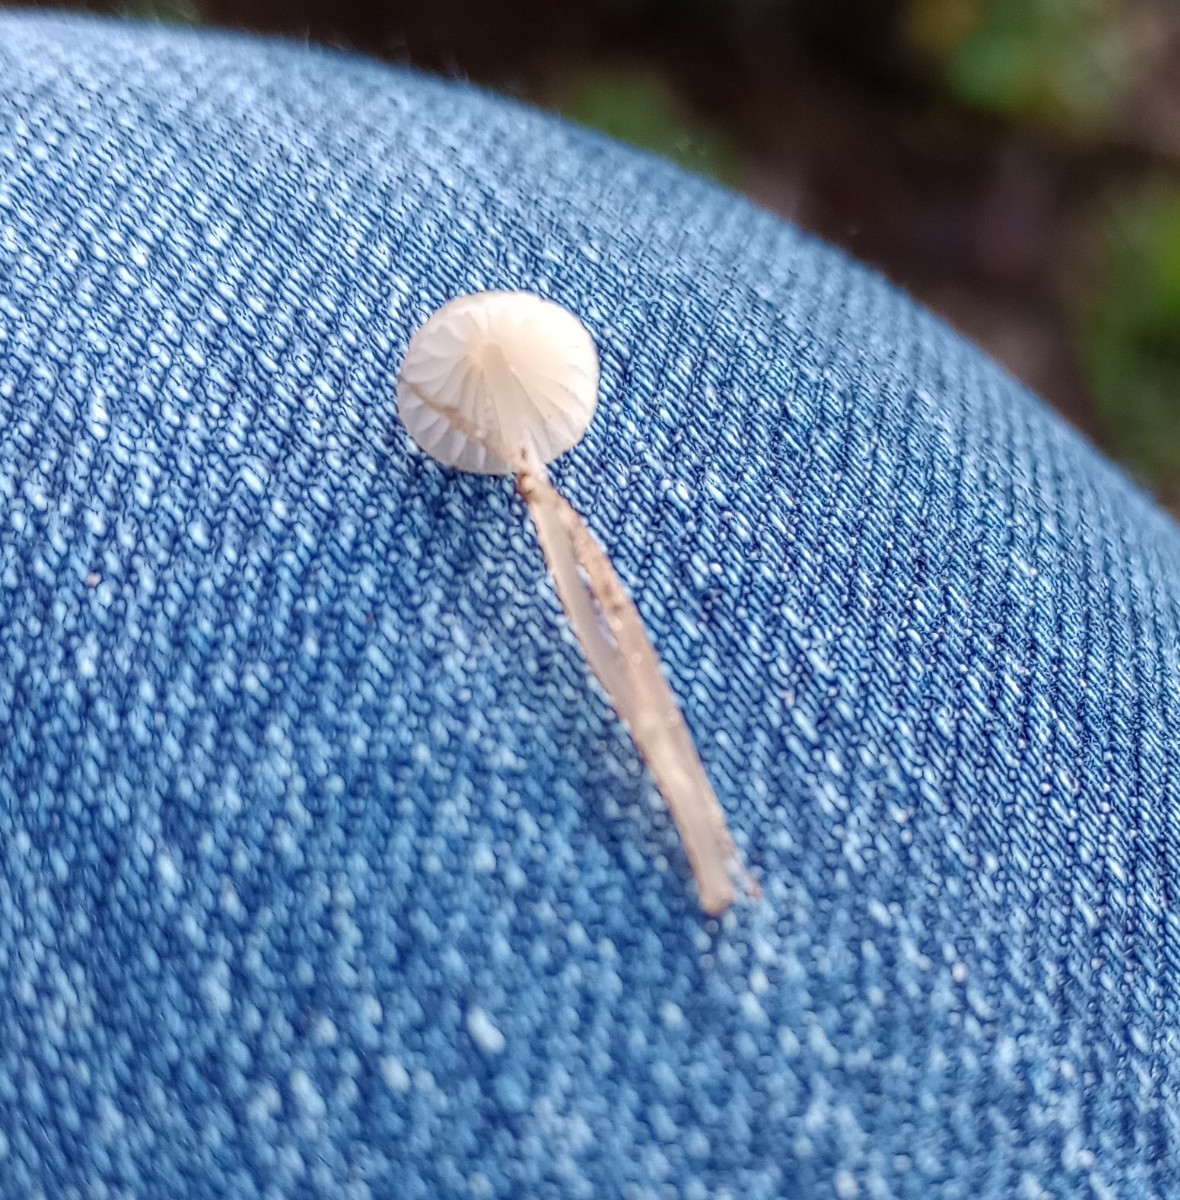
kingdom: Fungi
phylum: Basidiomycota
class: Agaricomycetes
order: Agaricales
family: Mycenaceae
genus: Mycena
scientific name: Mycena
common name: huesvamp
